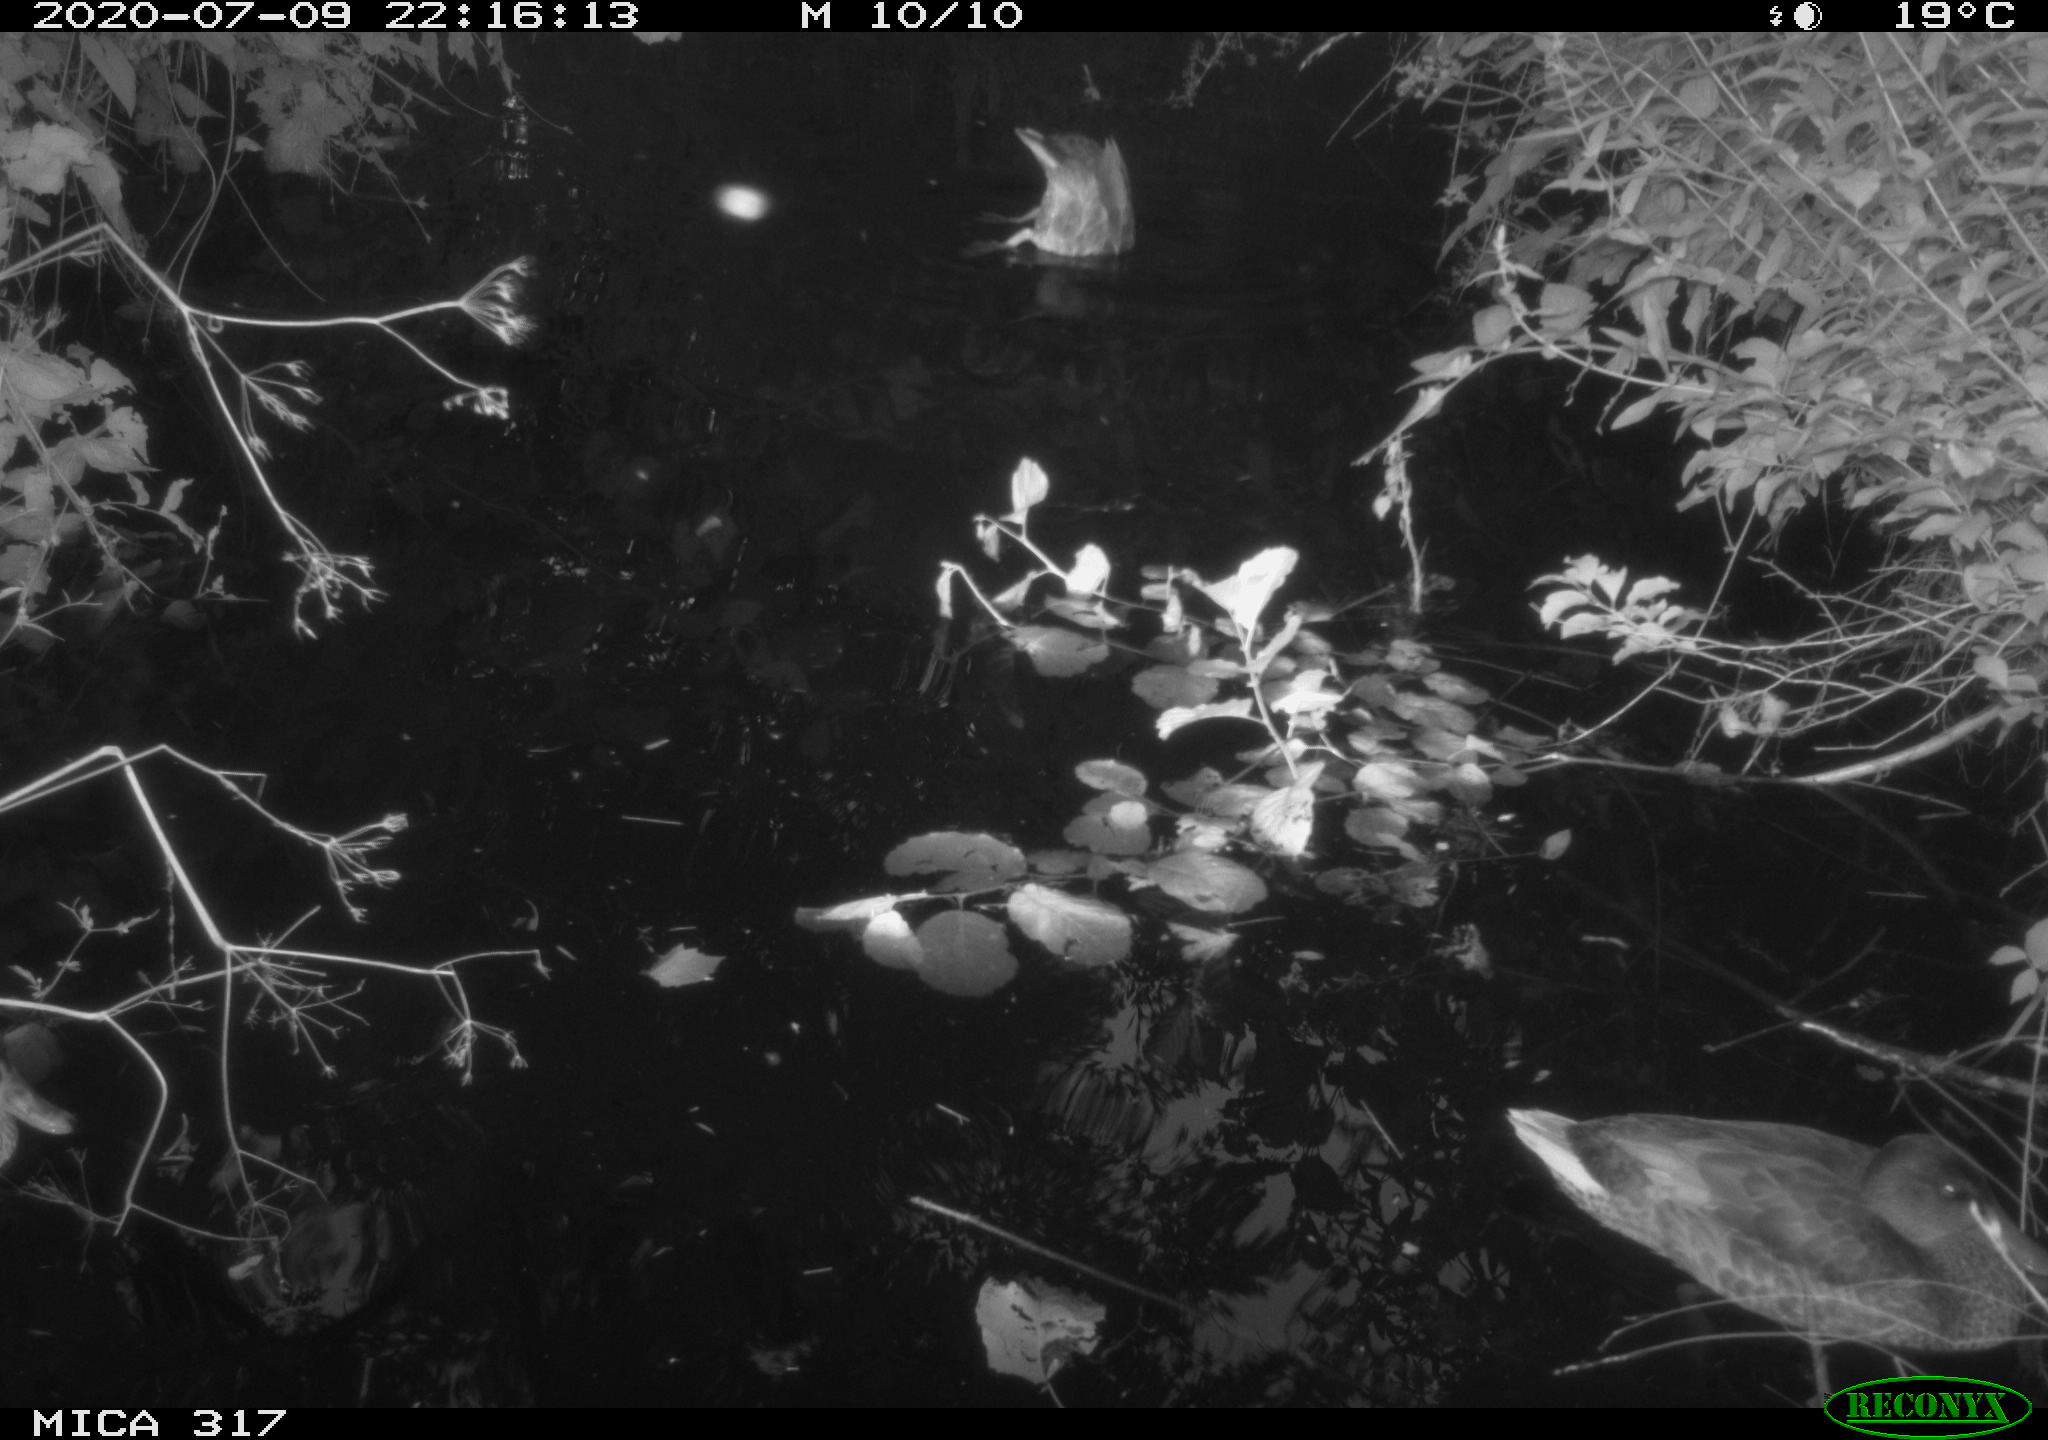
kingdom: Animalia
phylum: Chordata
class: Aves
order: Anseriformes
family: Anatidae
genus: Anas
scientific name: Anas platyrhynchos
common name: Mallard
